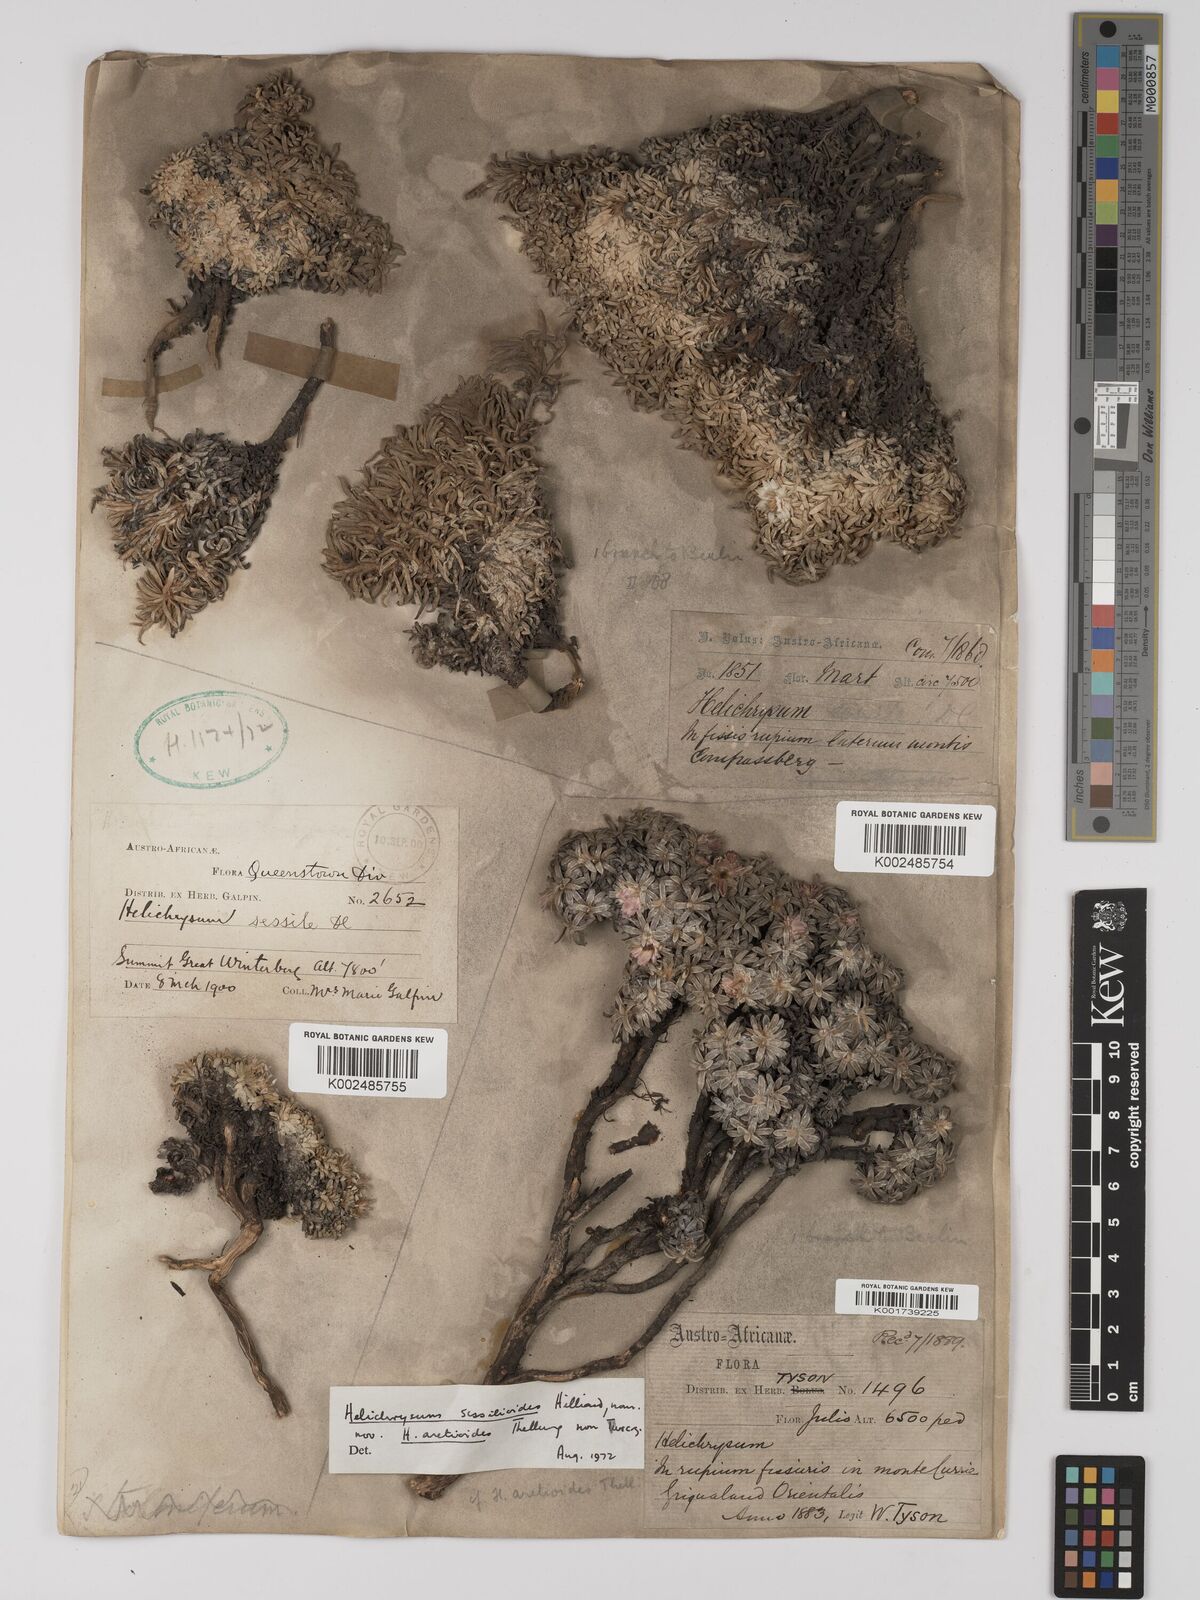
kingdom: Plantae
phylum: Tracheophyta
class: Magnoliopsida
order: Asterales
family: Asteraceae
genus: Helichrysum
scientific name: Helichrysum sessilioides
